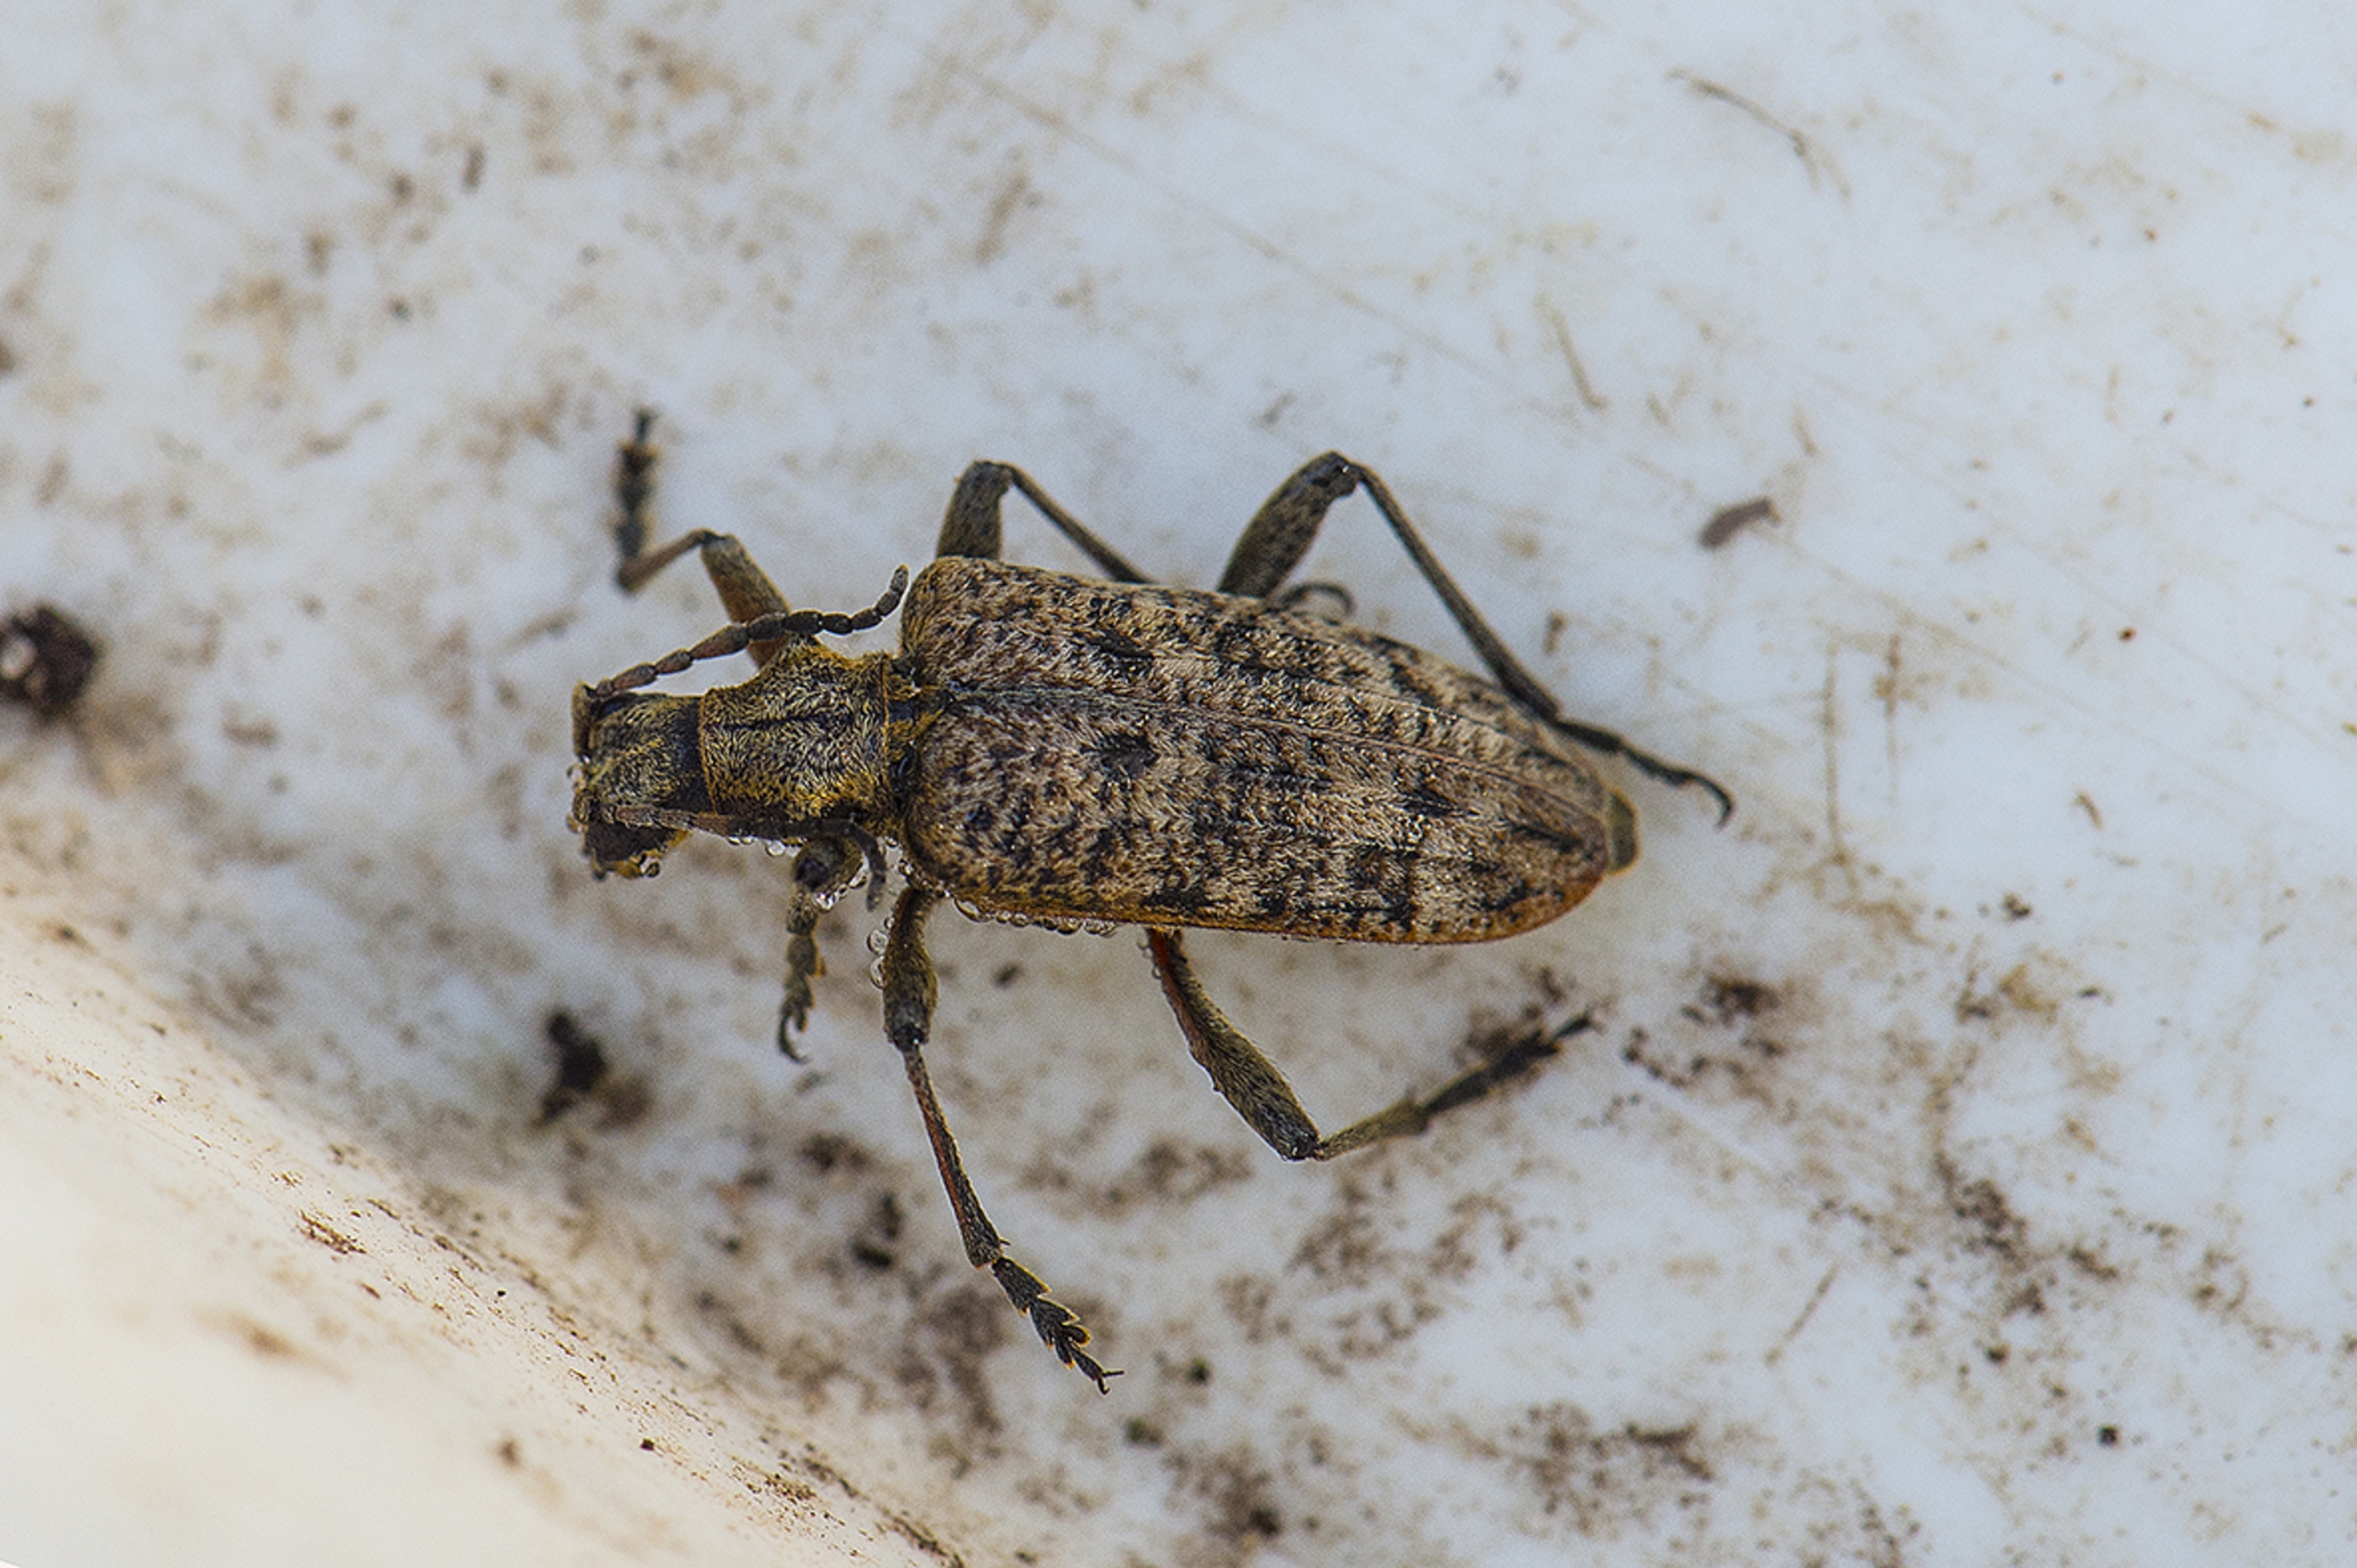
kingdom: Animalia
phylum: Arthropoda
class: Insecta
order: Coleoptera
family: Cerambycidae
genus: Rhagium
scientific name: Rhagium inquisitor
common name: Fyrretandbuk
